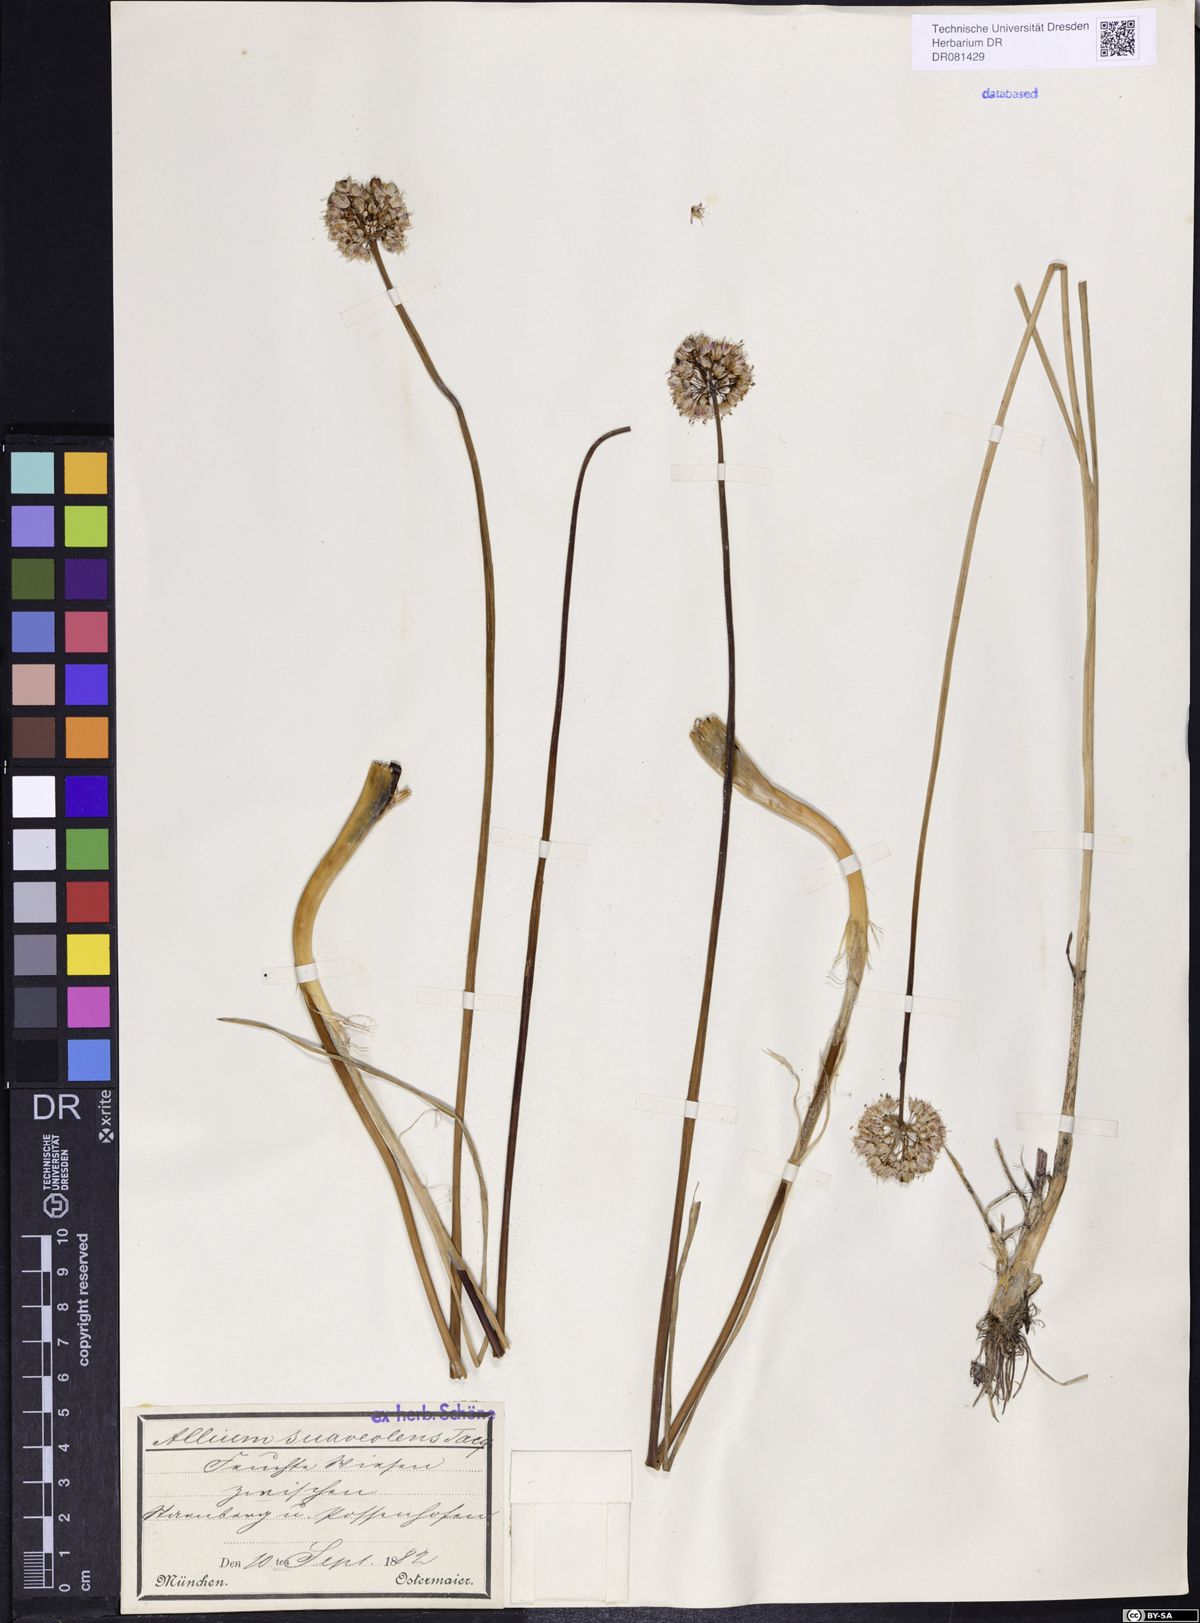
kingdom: Plantae
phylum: Tracheophyta
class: Liliopsida
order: Asparagales
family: Amaryllidaceae
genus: Allium
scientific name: Allium suaveolens
